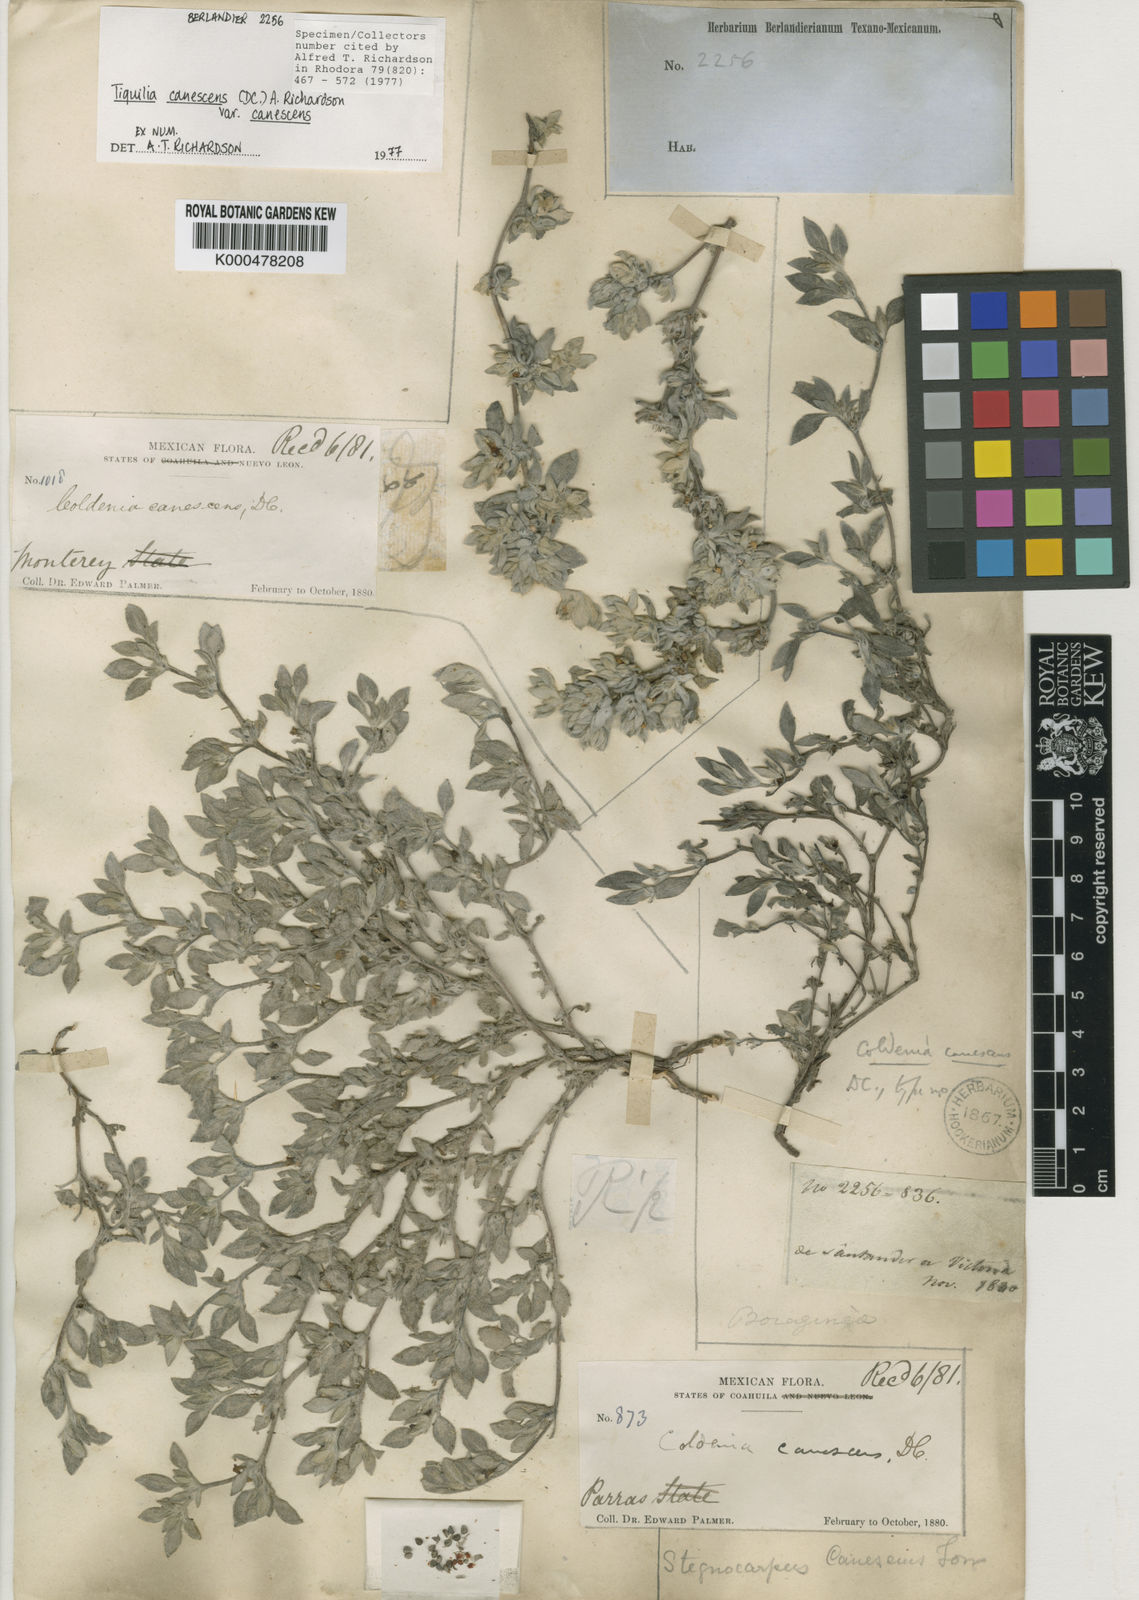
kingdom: Plantae
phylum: Tracheophyta
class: Magnoliopsida
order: Boraginales
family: Ehretiaceae
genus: Tiquilia
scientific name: Tiquilia canescens
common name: Hairy tiquilia
